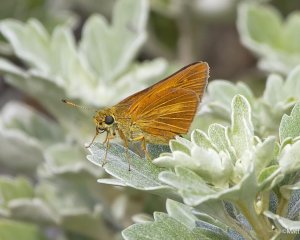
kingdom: Animalia
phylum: Arthropoda
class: Insecta
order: Lepidoptera
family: Hesperiidae
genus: Euphyes
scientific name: Euphyes dion
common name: Dion Skipper
